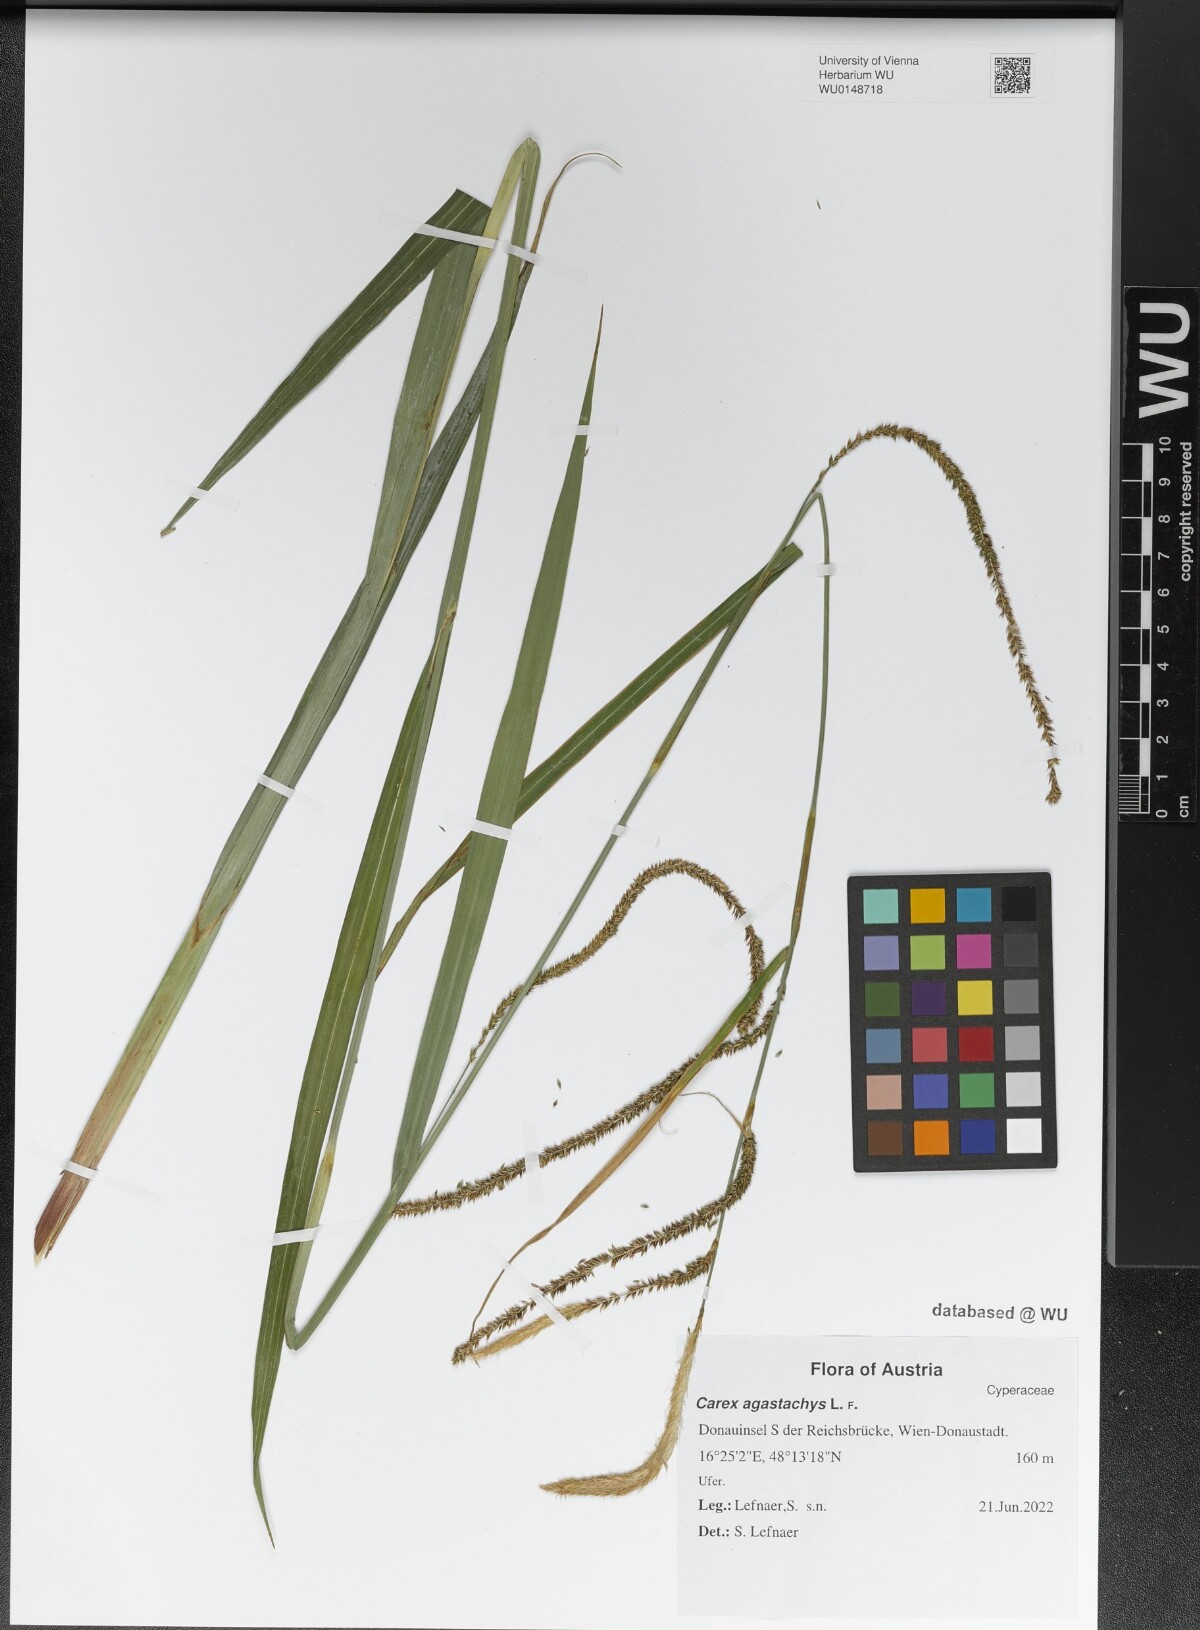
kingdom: Plantae
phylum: Tracheophyta
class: Liliopsida
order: Poales
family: Cyperaceae
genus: Carex
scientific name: Carex agastachys
